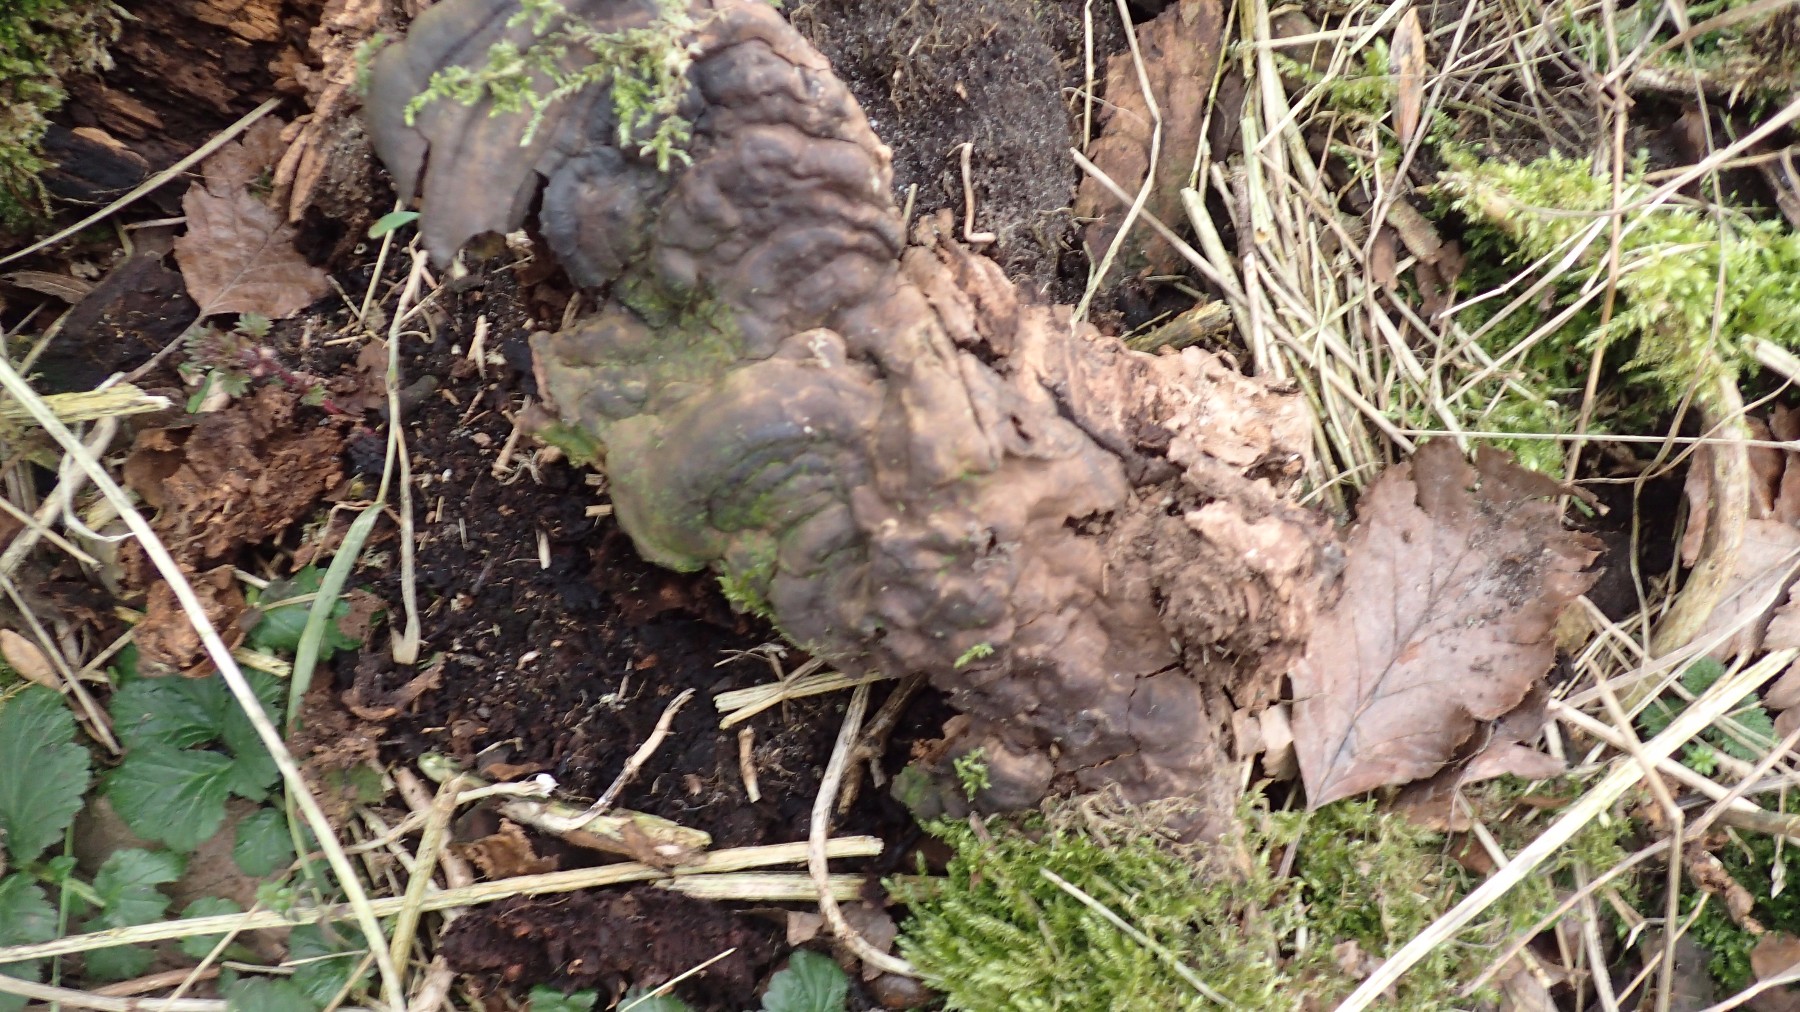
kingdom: Fungi
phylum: Basidiomycota
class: Agaricomycetes
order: Polyporales
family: Polyporaceae
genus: Ganoderma
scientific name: Ganoderma applanatum
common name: flad lakporesvamp
